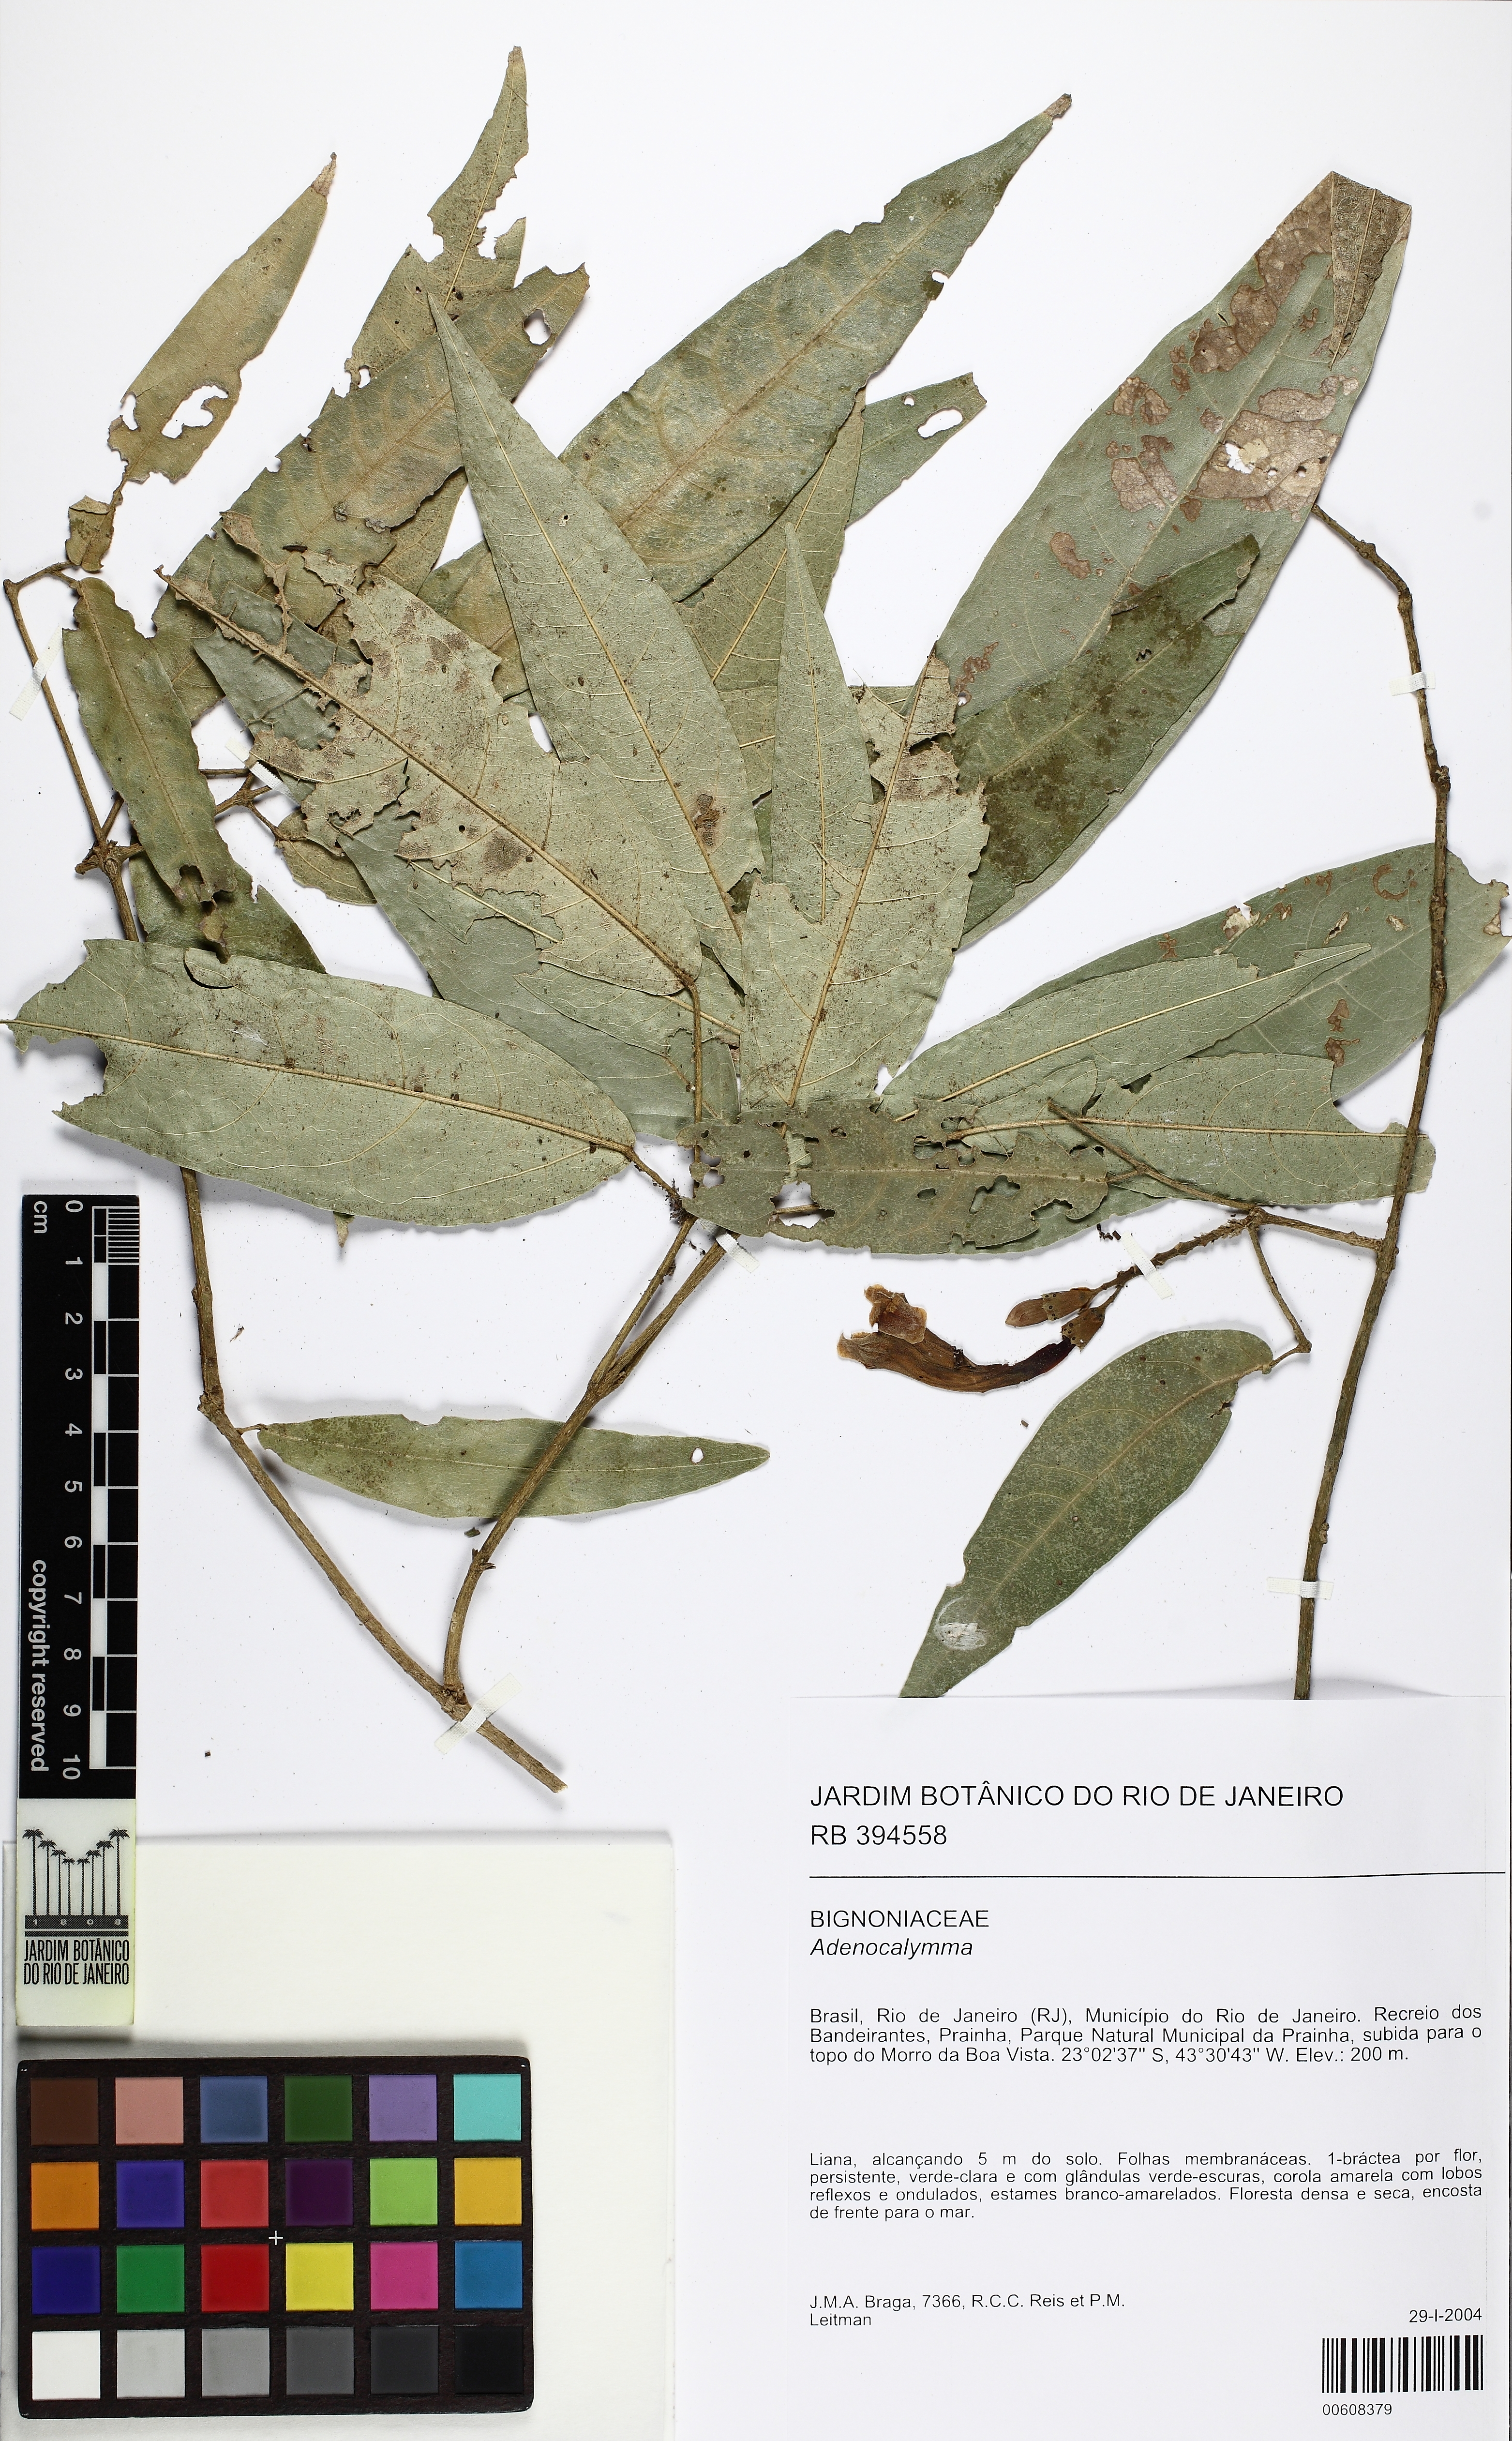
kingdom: Plantae
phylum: Tracheophyta
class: Magnoliopsida
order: Lamiales
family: Bignoniaceae
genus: Adenocalymma
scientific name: Adenocalymma acutissimum
